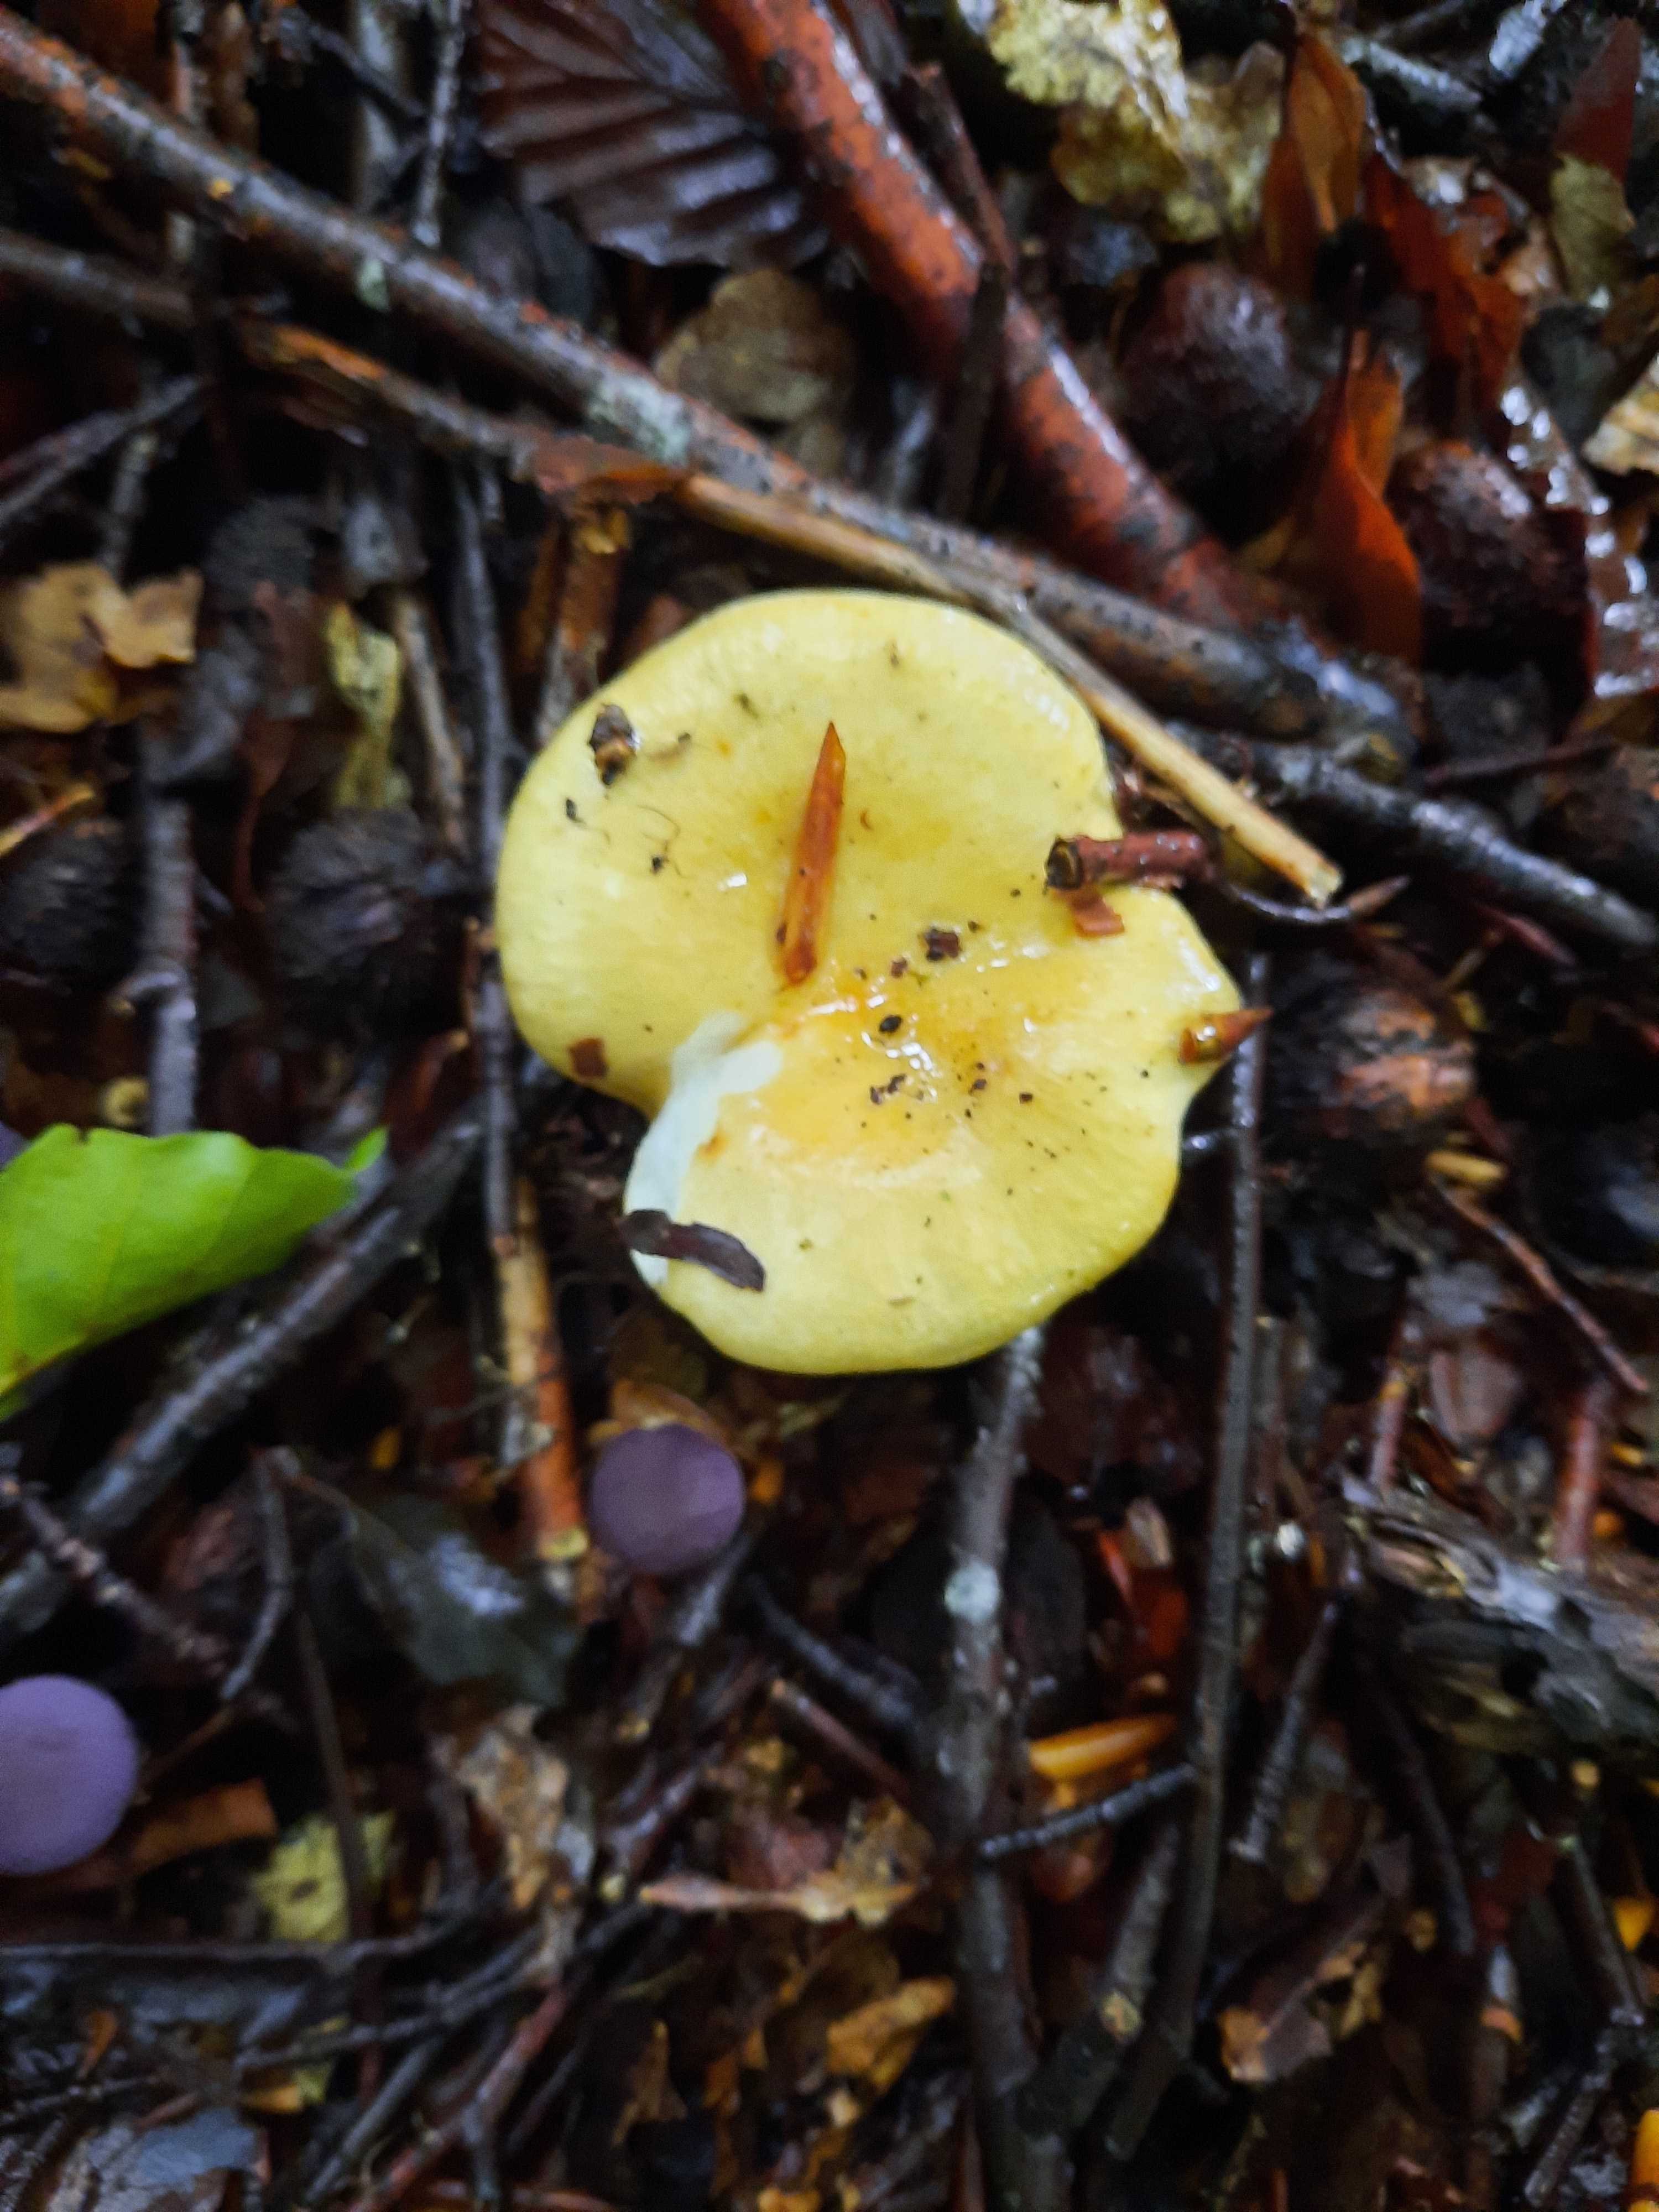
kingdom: Fungi
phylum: Basidiomycota
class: Agaricomycetes
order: Russulales
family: Russulaceae
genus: Russula
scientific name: Russula ochroleuca
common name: okkergul skørhat
